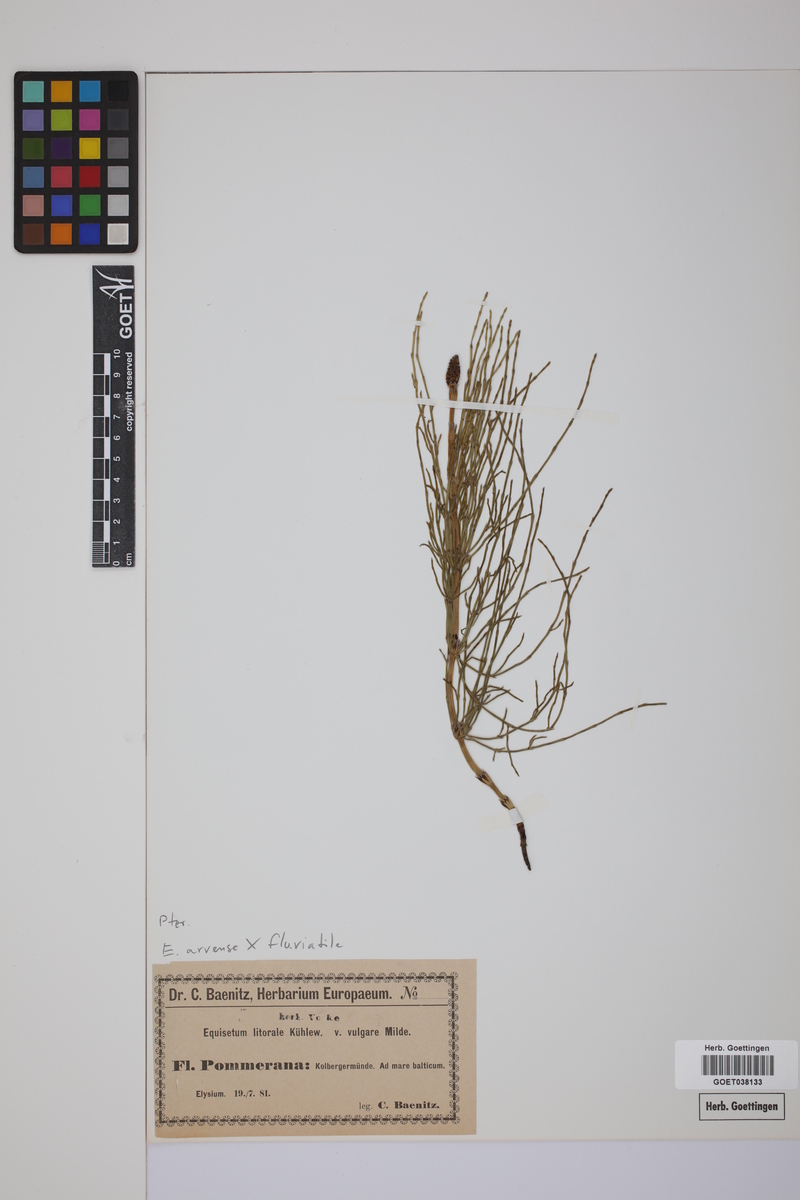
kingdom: Plantae
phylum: Tracheophyta
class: Polypodiopsida
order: Equisetales
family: Equisetaceae
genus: Equisetum
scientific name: Equisetum litorale
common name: Littoral horsetail
